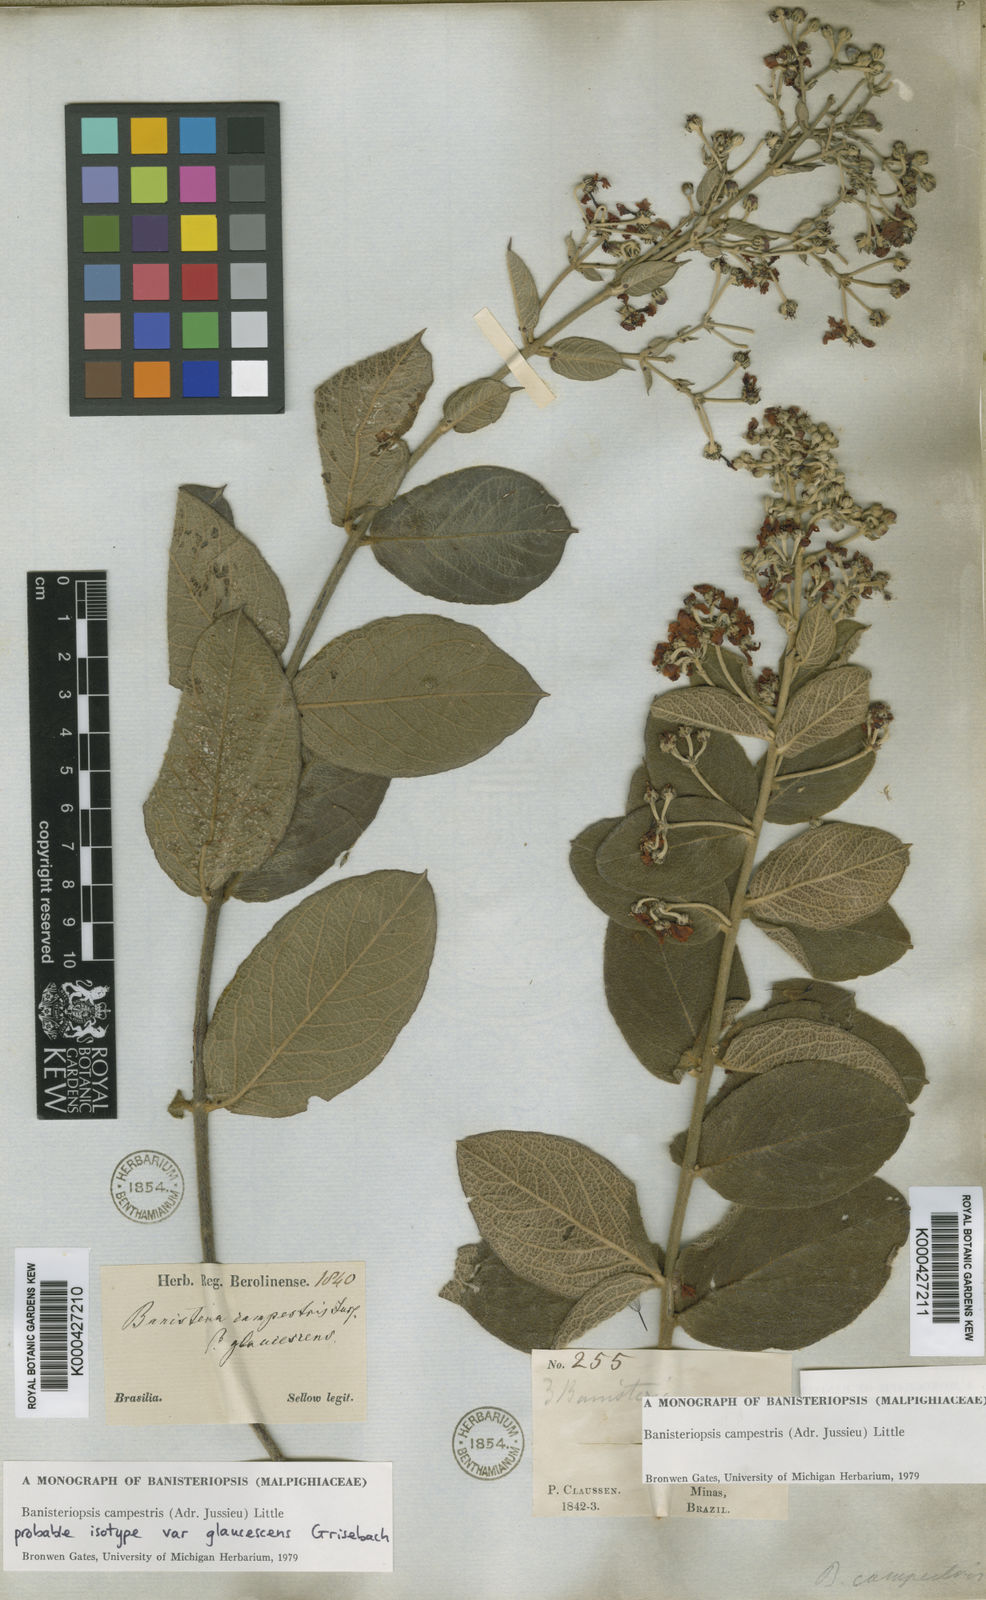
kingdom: Plantae
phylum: Tracheophyta
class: Magnoliopsida
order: Malpighiales
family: Malpighiaceae
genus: Banisteriopsis
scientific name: Banisteriopsis campestris
